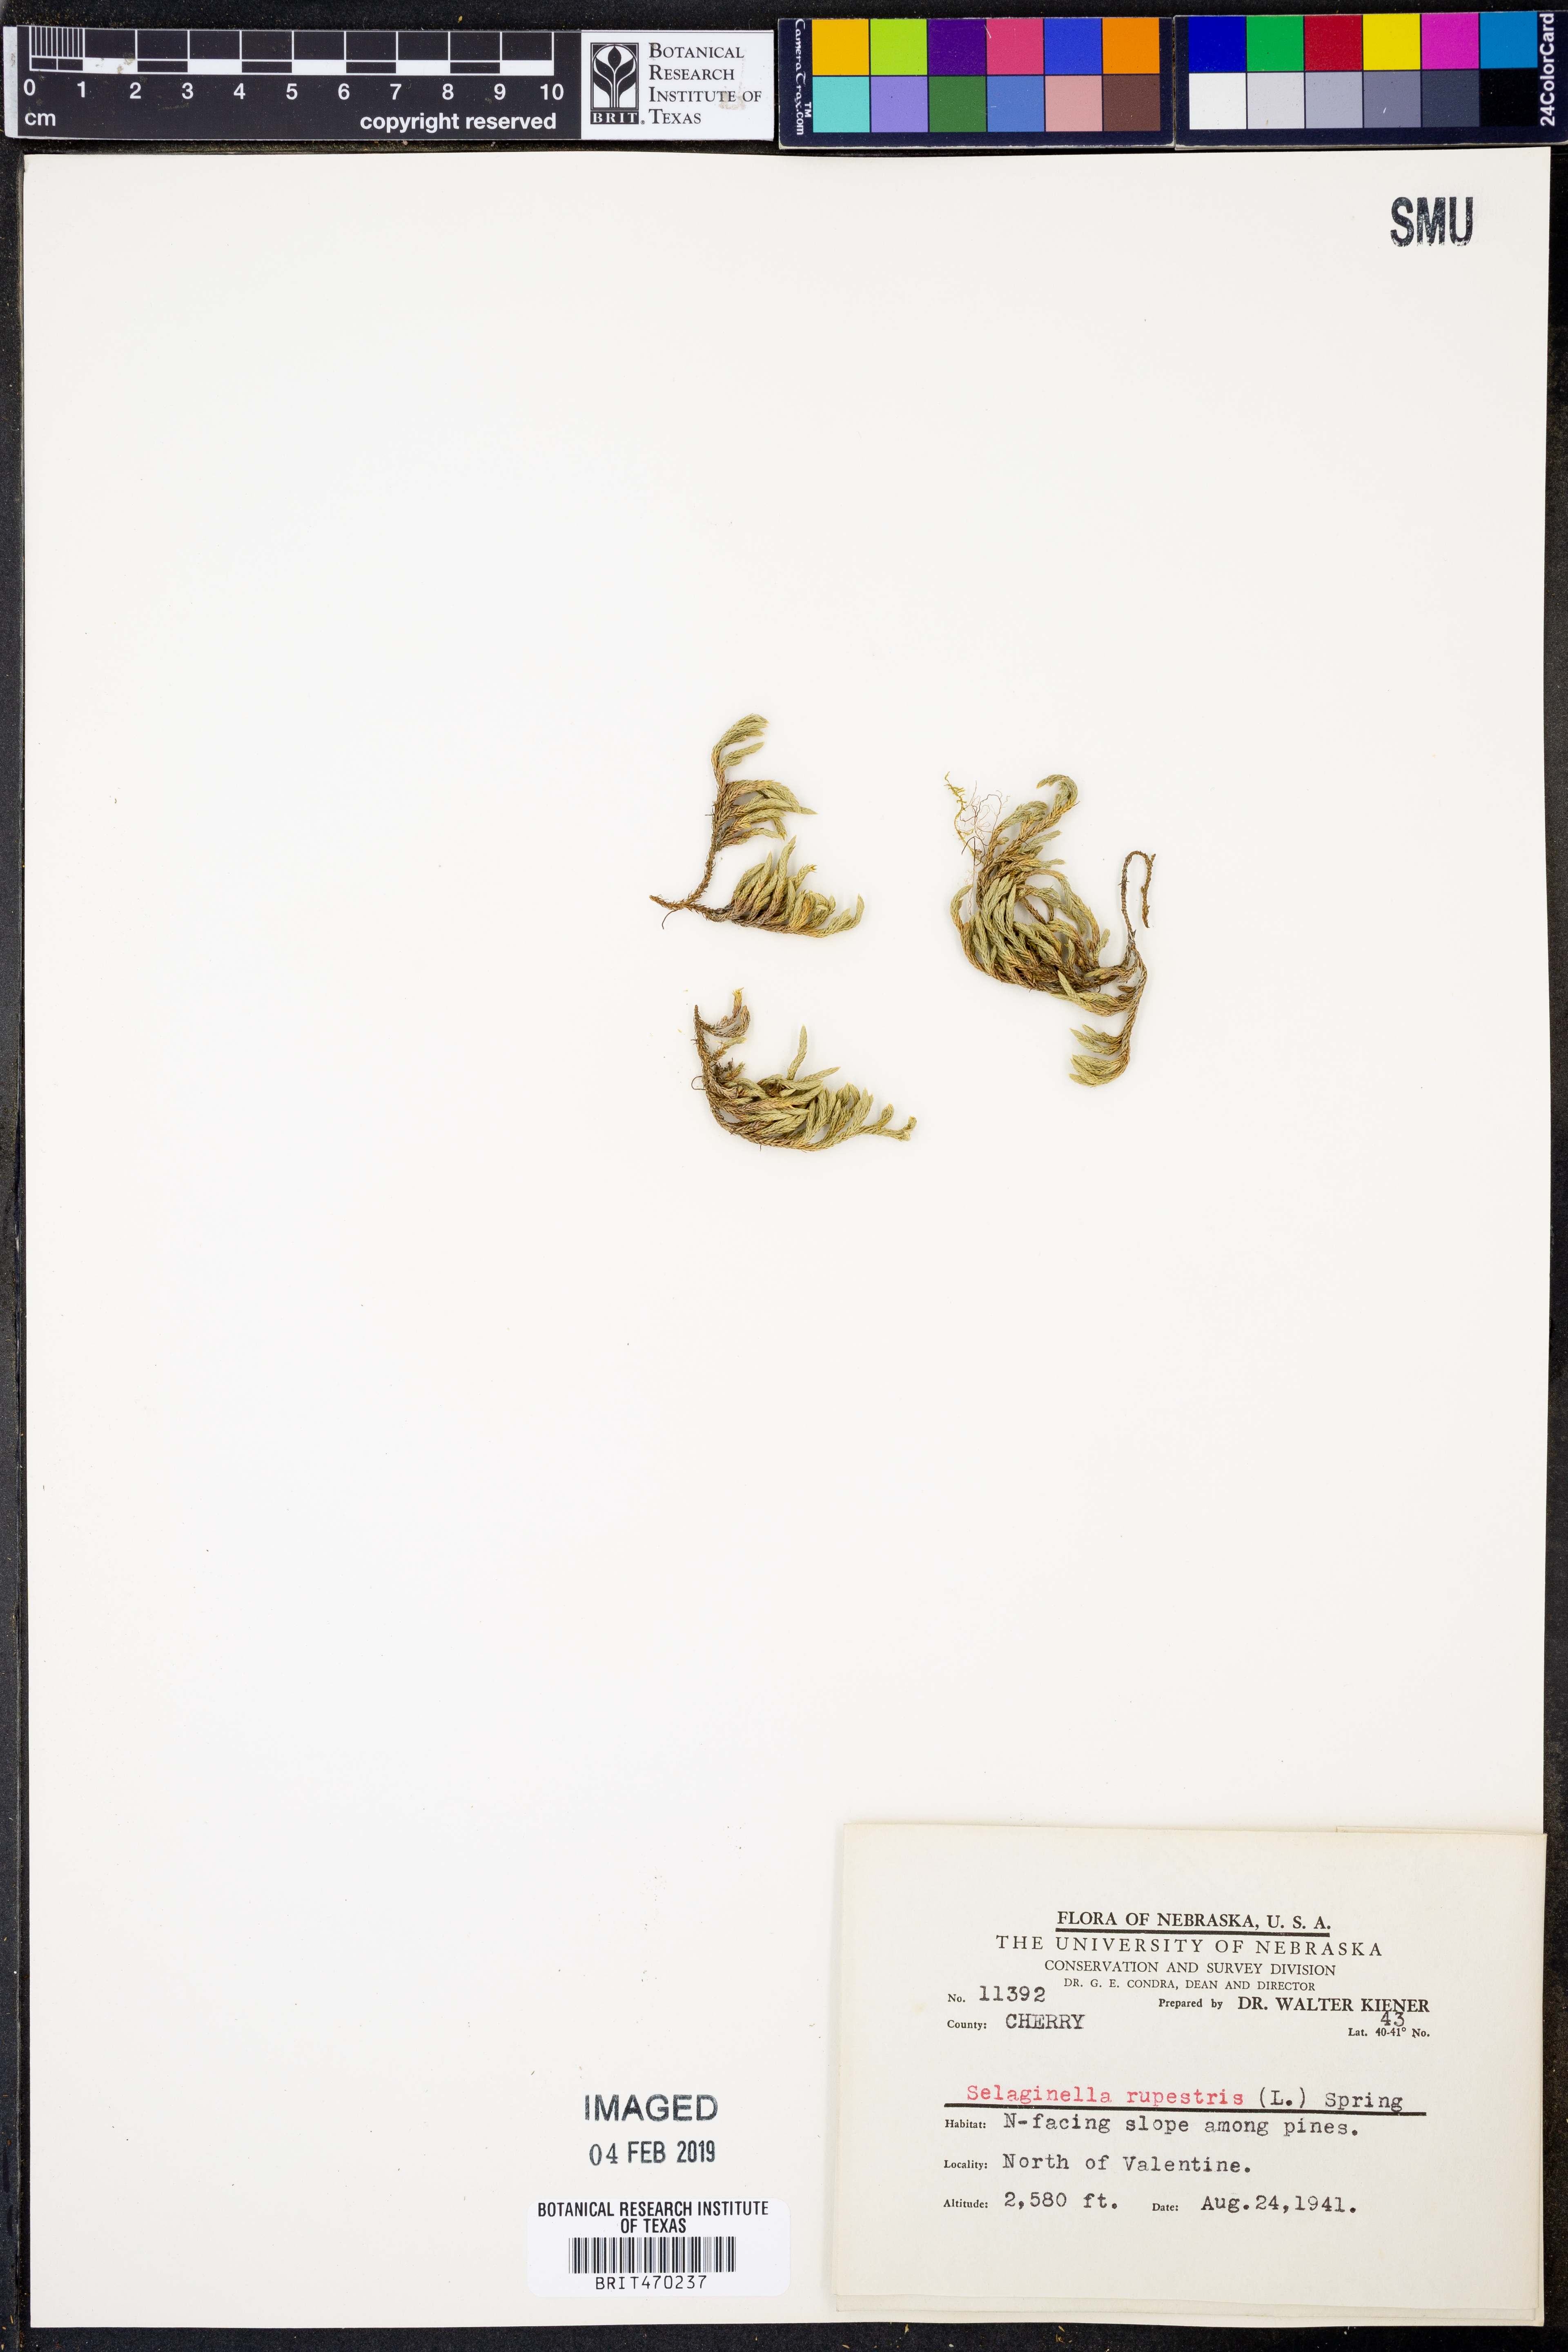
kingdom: Plantae
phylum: Tracheophyta
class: Lycopodiopsida
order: Selaginellales
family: Selaginellaceae
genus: Selaginella
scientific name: Selaginella rupestris
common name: Dwarf spikemoss
